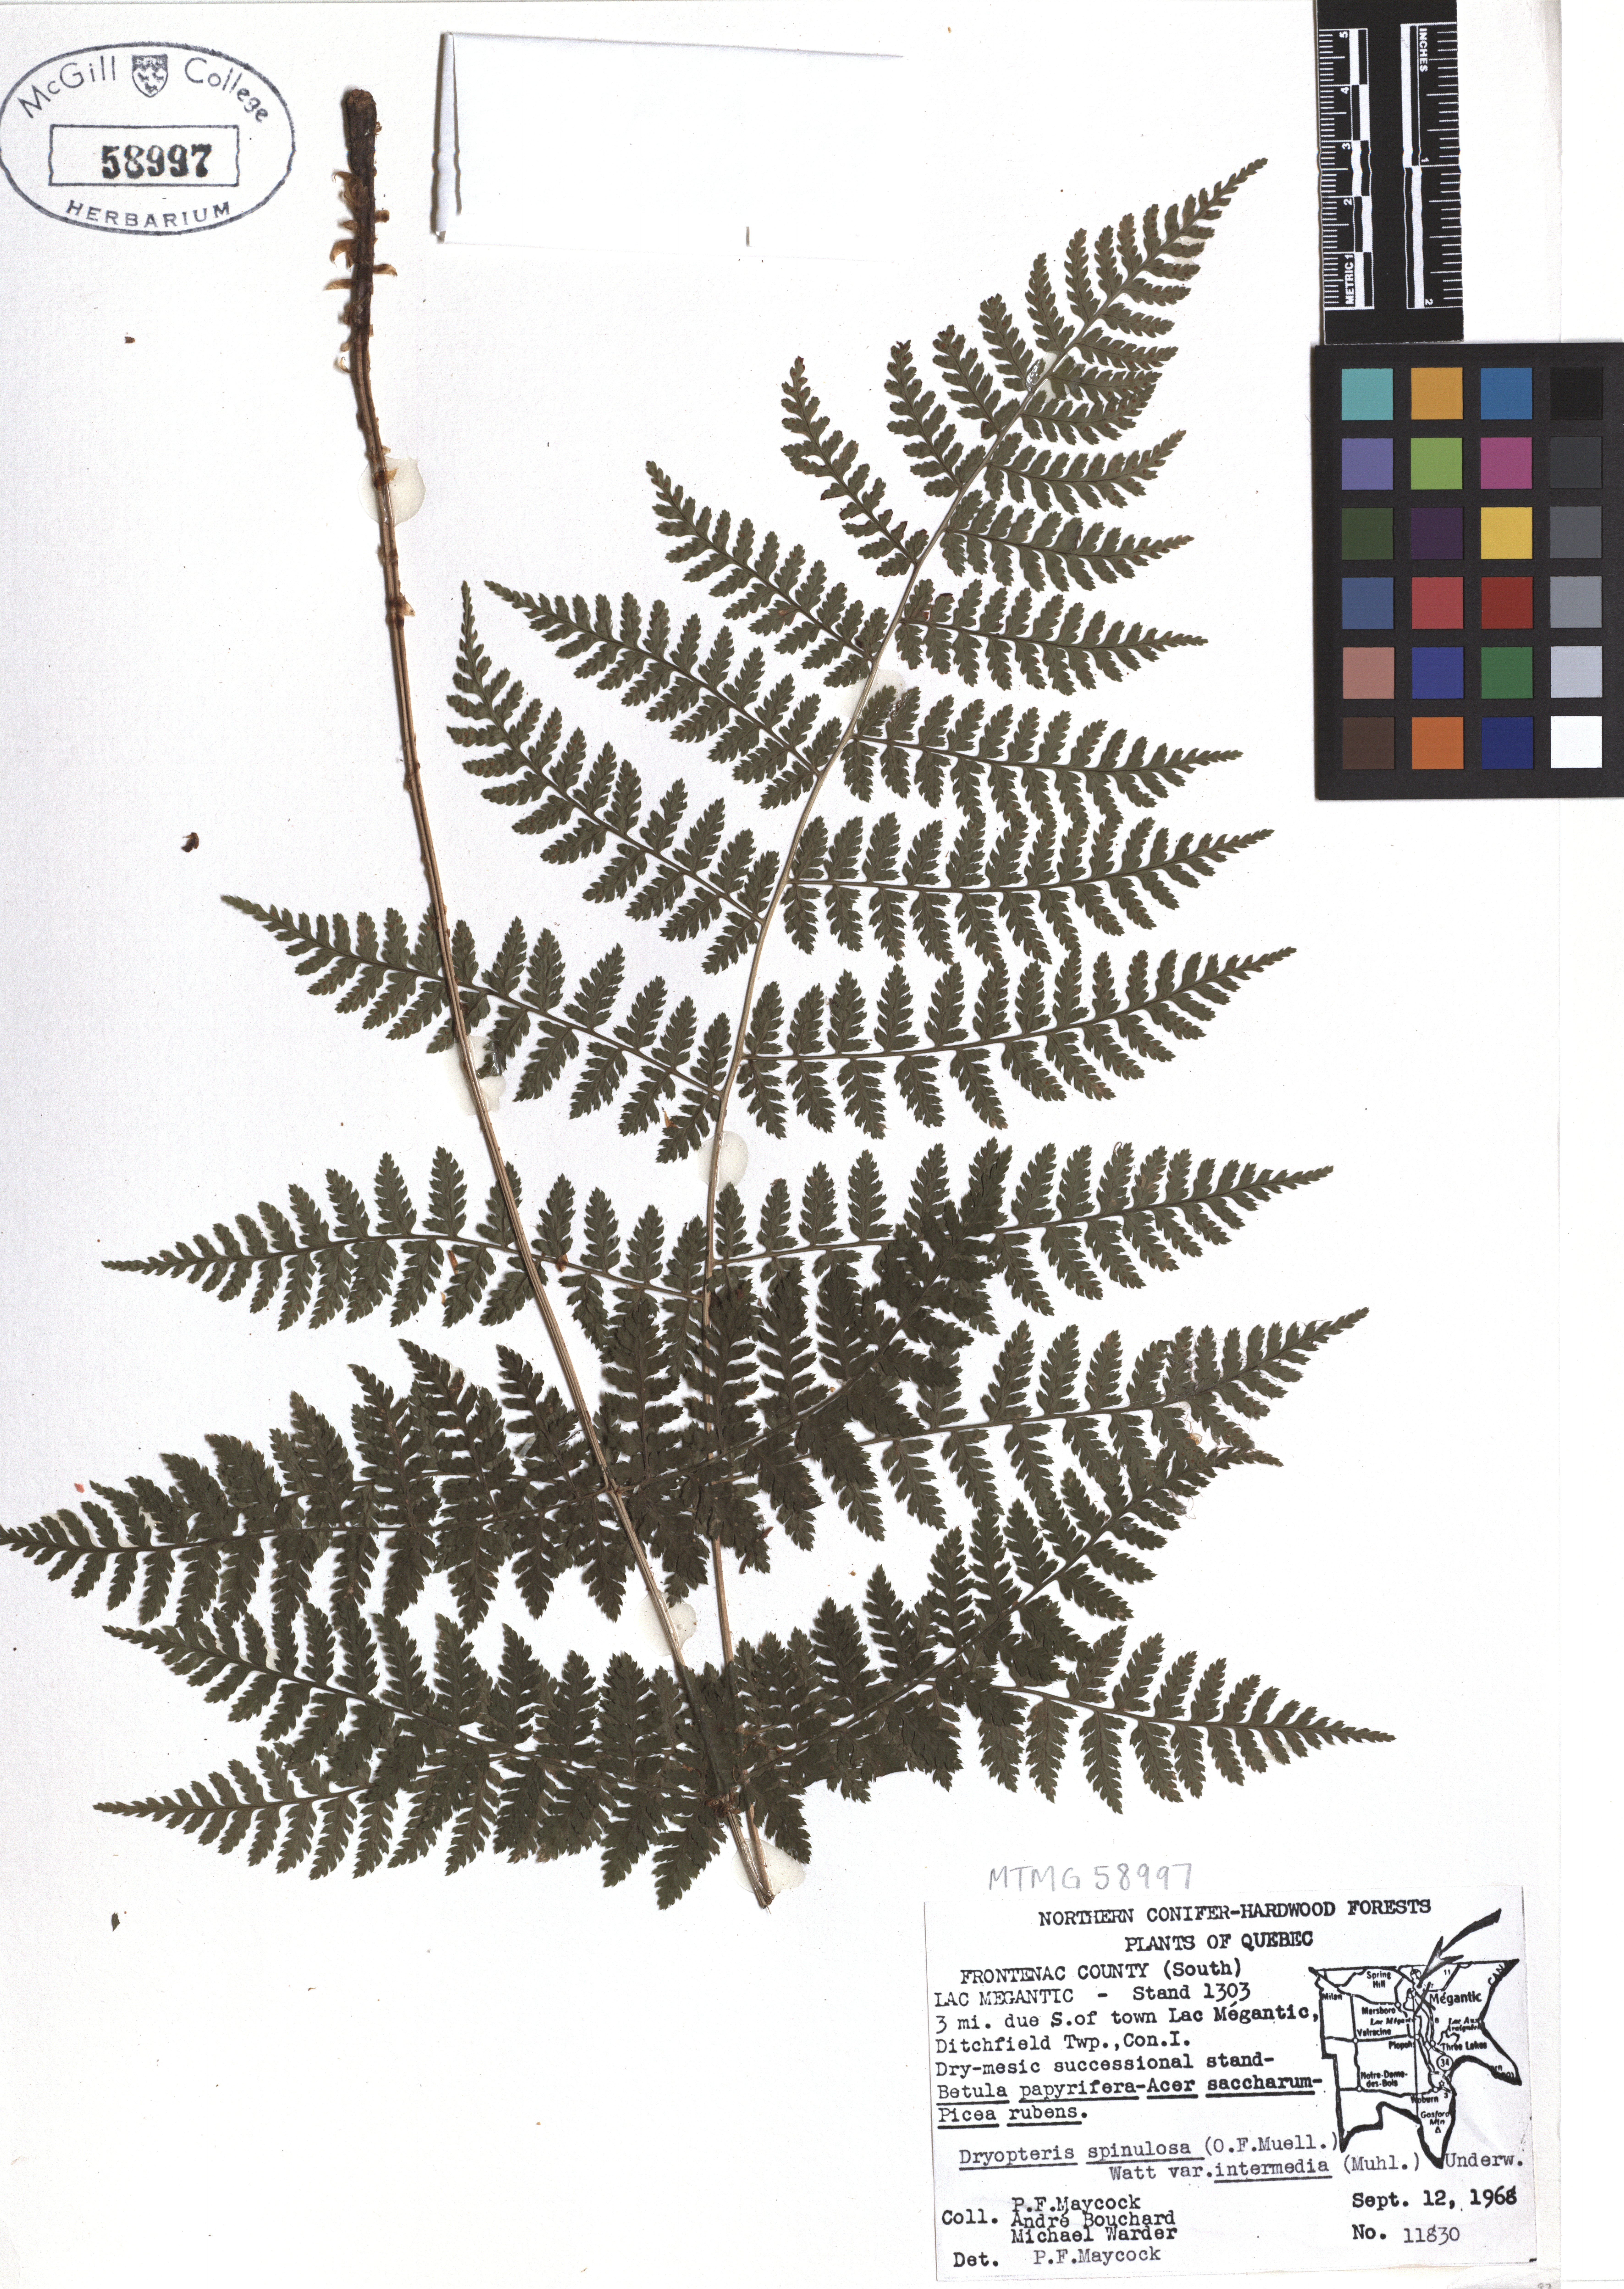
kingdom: Plantae
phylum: Tracheophyta
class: Polypodiopsida
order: Polypodiales
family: Dryopteridaceae
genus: Dryopteris
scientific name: Dryopteris intermedia
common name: Evergreen wood fern
